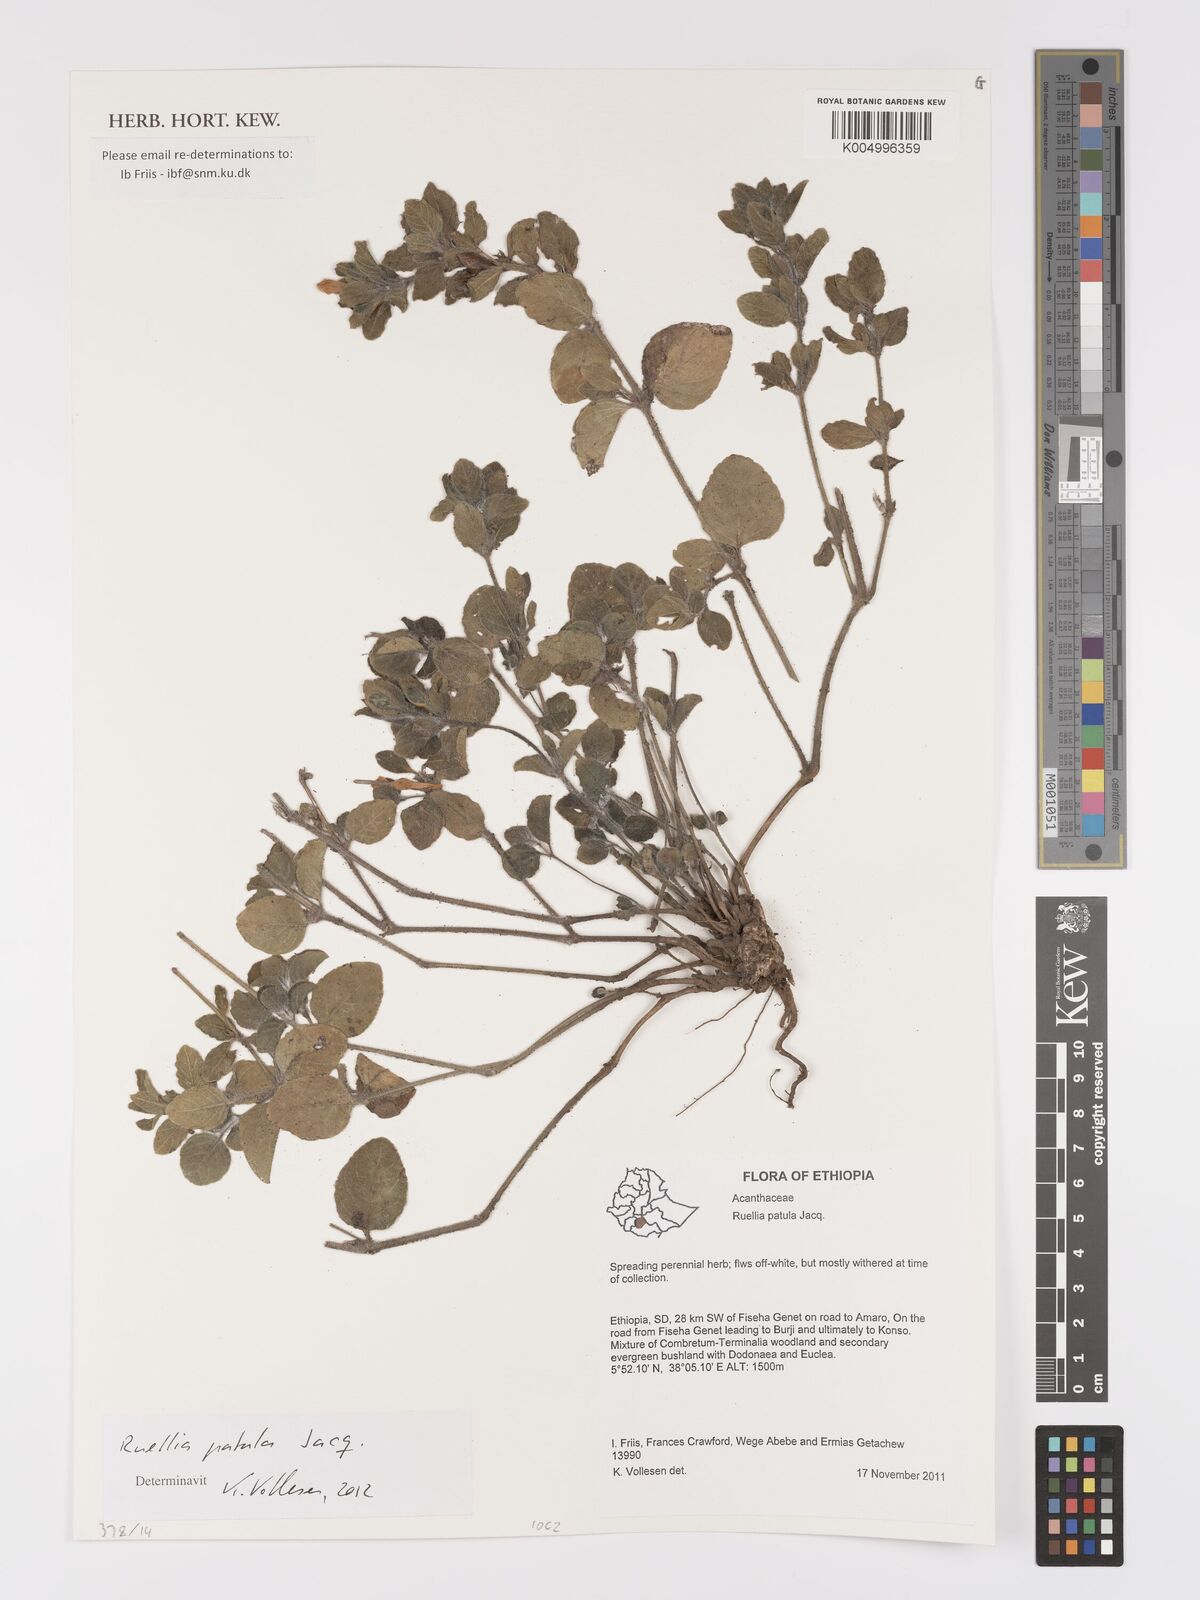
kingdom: Plantae
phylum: Tracheophyta
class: Magnoliopsida
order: Lamiales
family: Acanthaceae
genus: Ruellia
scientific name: Ruellia patula
